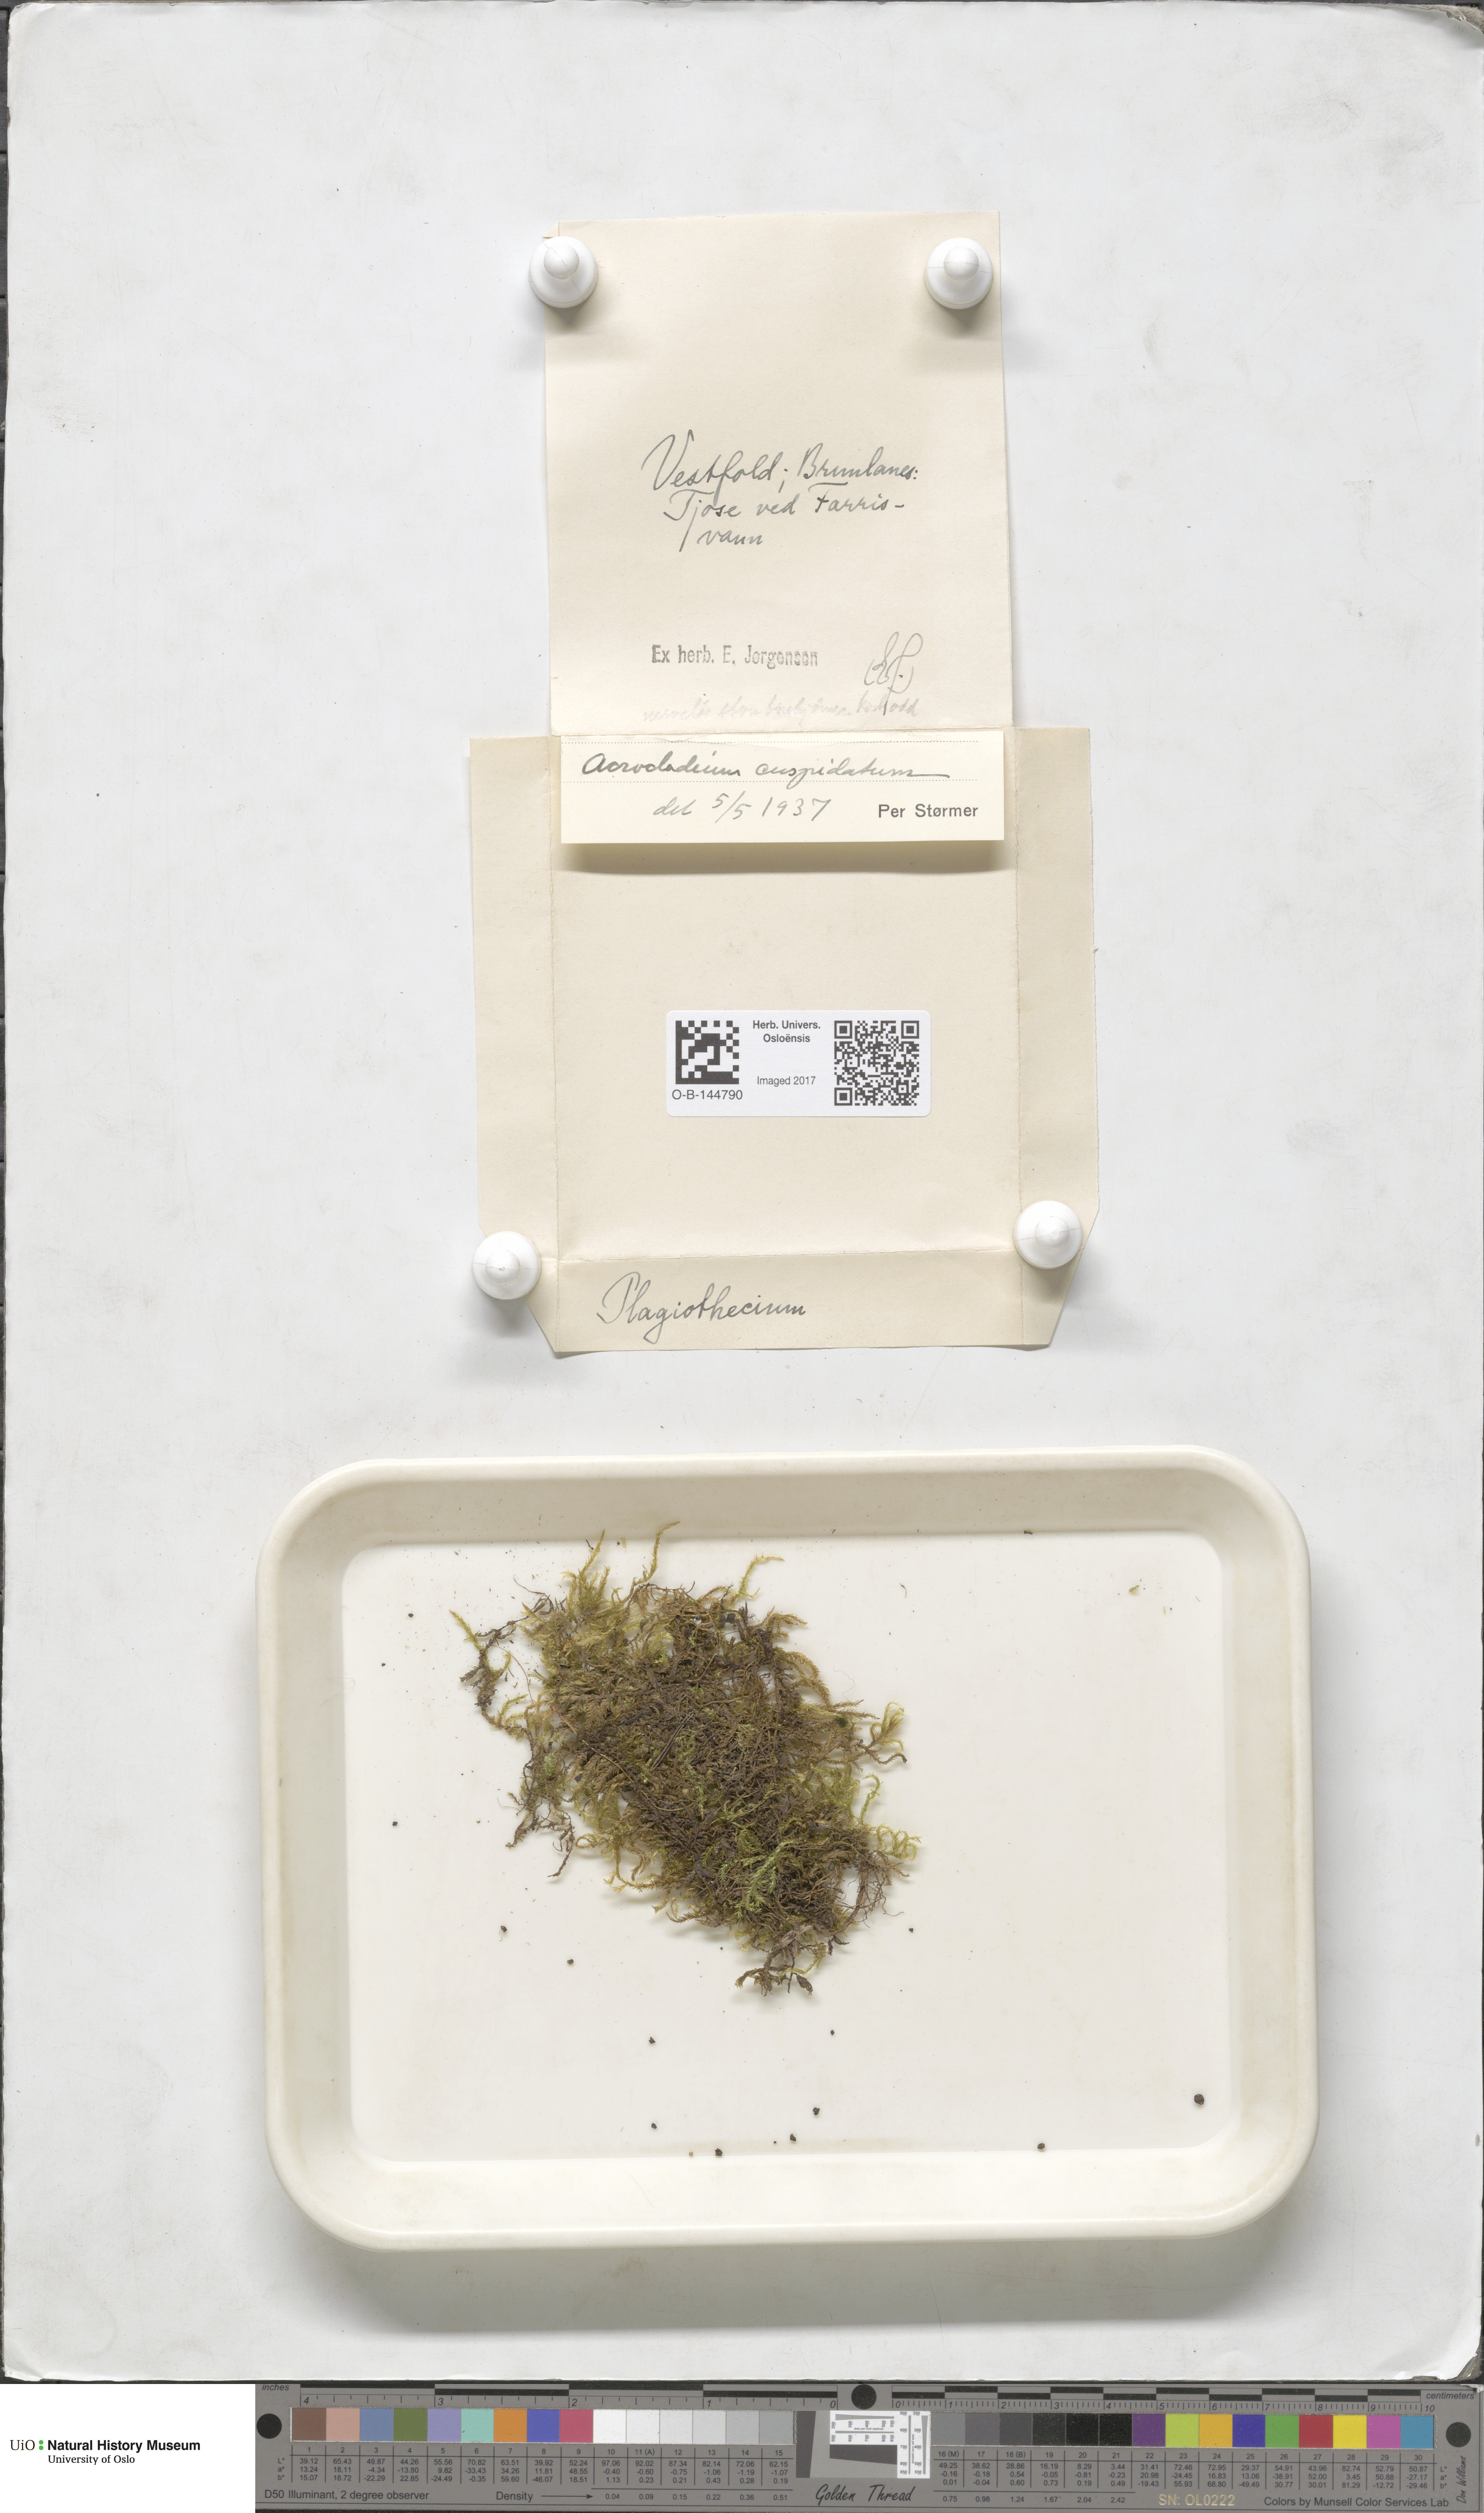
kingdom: Plantae
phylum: Bryophyta
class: Bryopsida
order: Hypnales
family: Pylaisiaceae
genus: Calliergonella
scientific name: Calliergonella cuspidata
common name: Common large wetland moss
